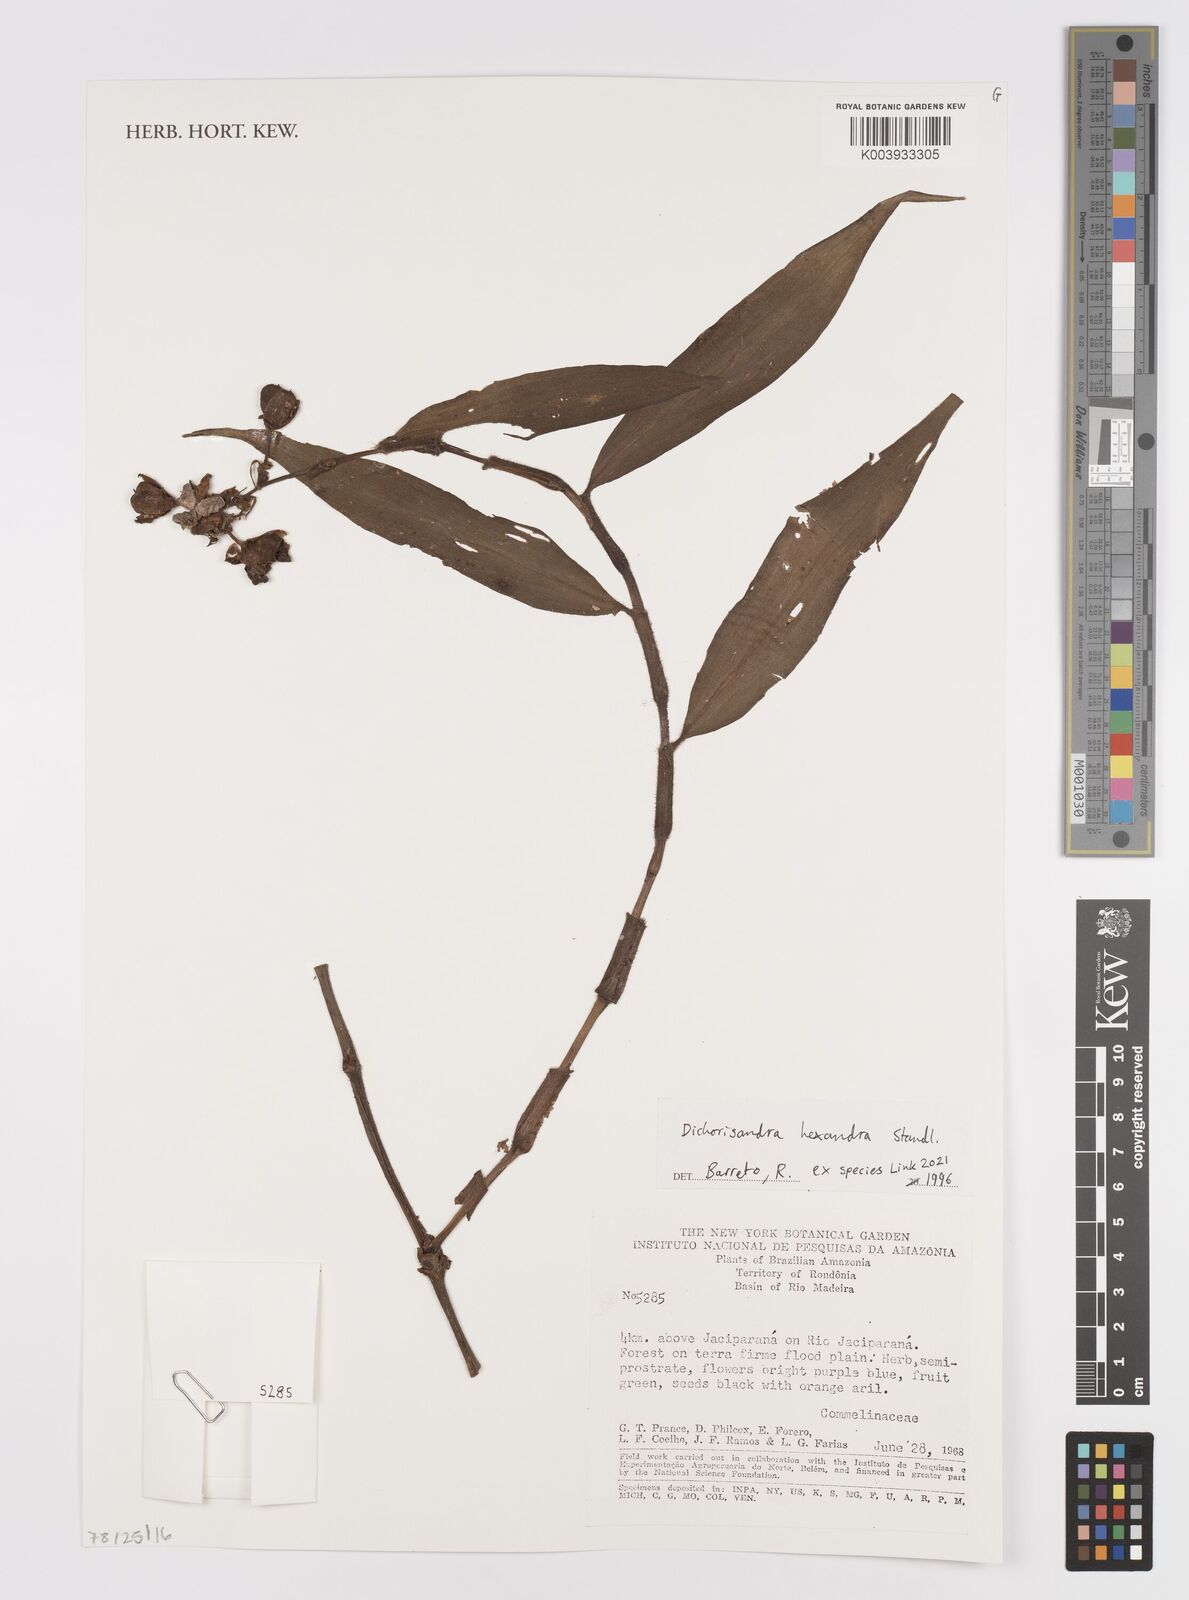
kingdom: Plantae
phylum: Tracheophyta
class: Liliopsida
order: Commelinales
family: Commelinaceae
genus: Dichorisandra
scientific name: Dichorisandra hexandra
